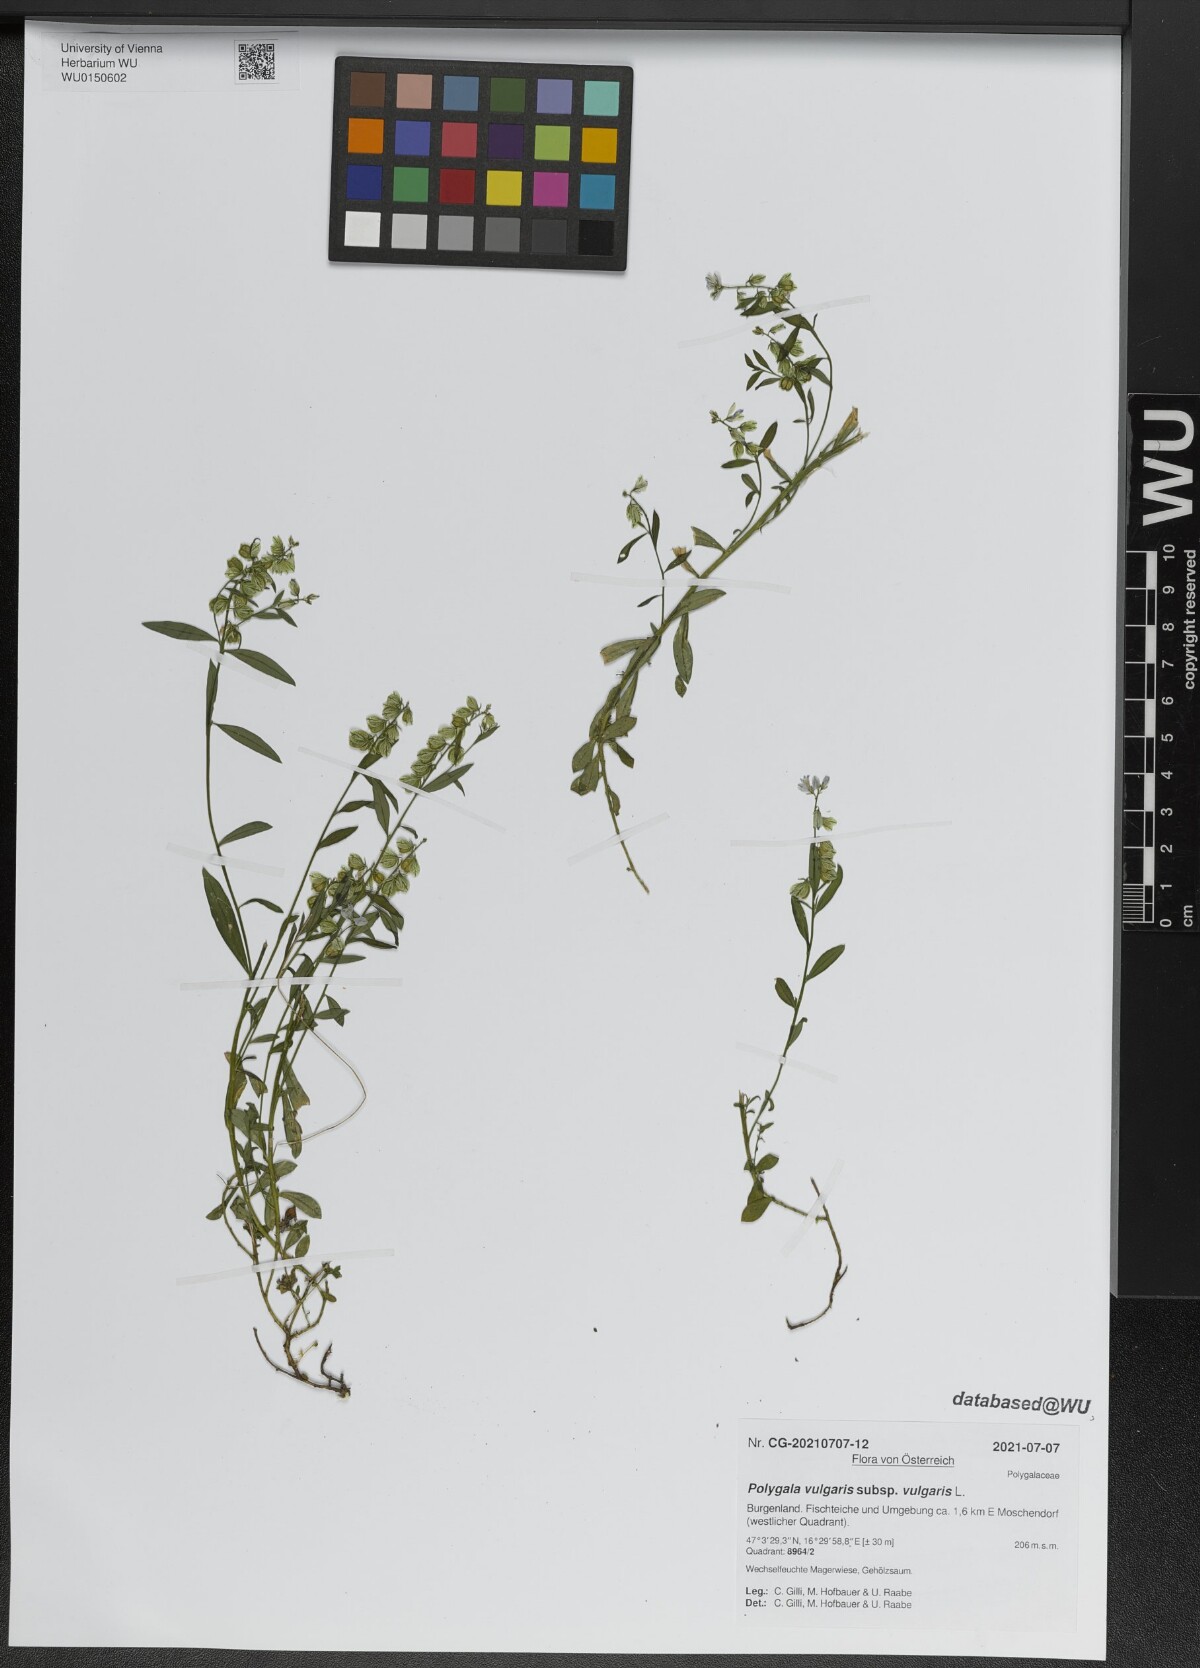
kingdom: Plantae
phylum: Tracheophyta
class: Magnoliopsida
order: Fabales
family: Polygalaceae
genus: Polygala
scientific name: Polygala vulgaris
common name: Common milkwort
